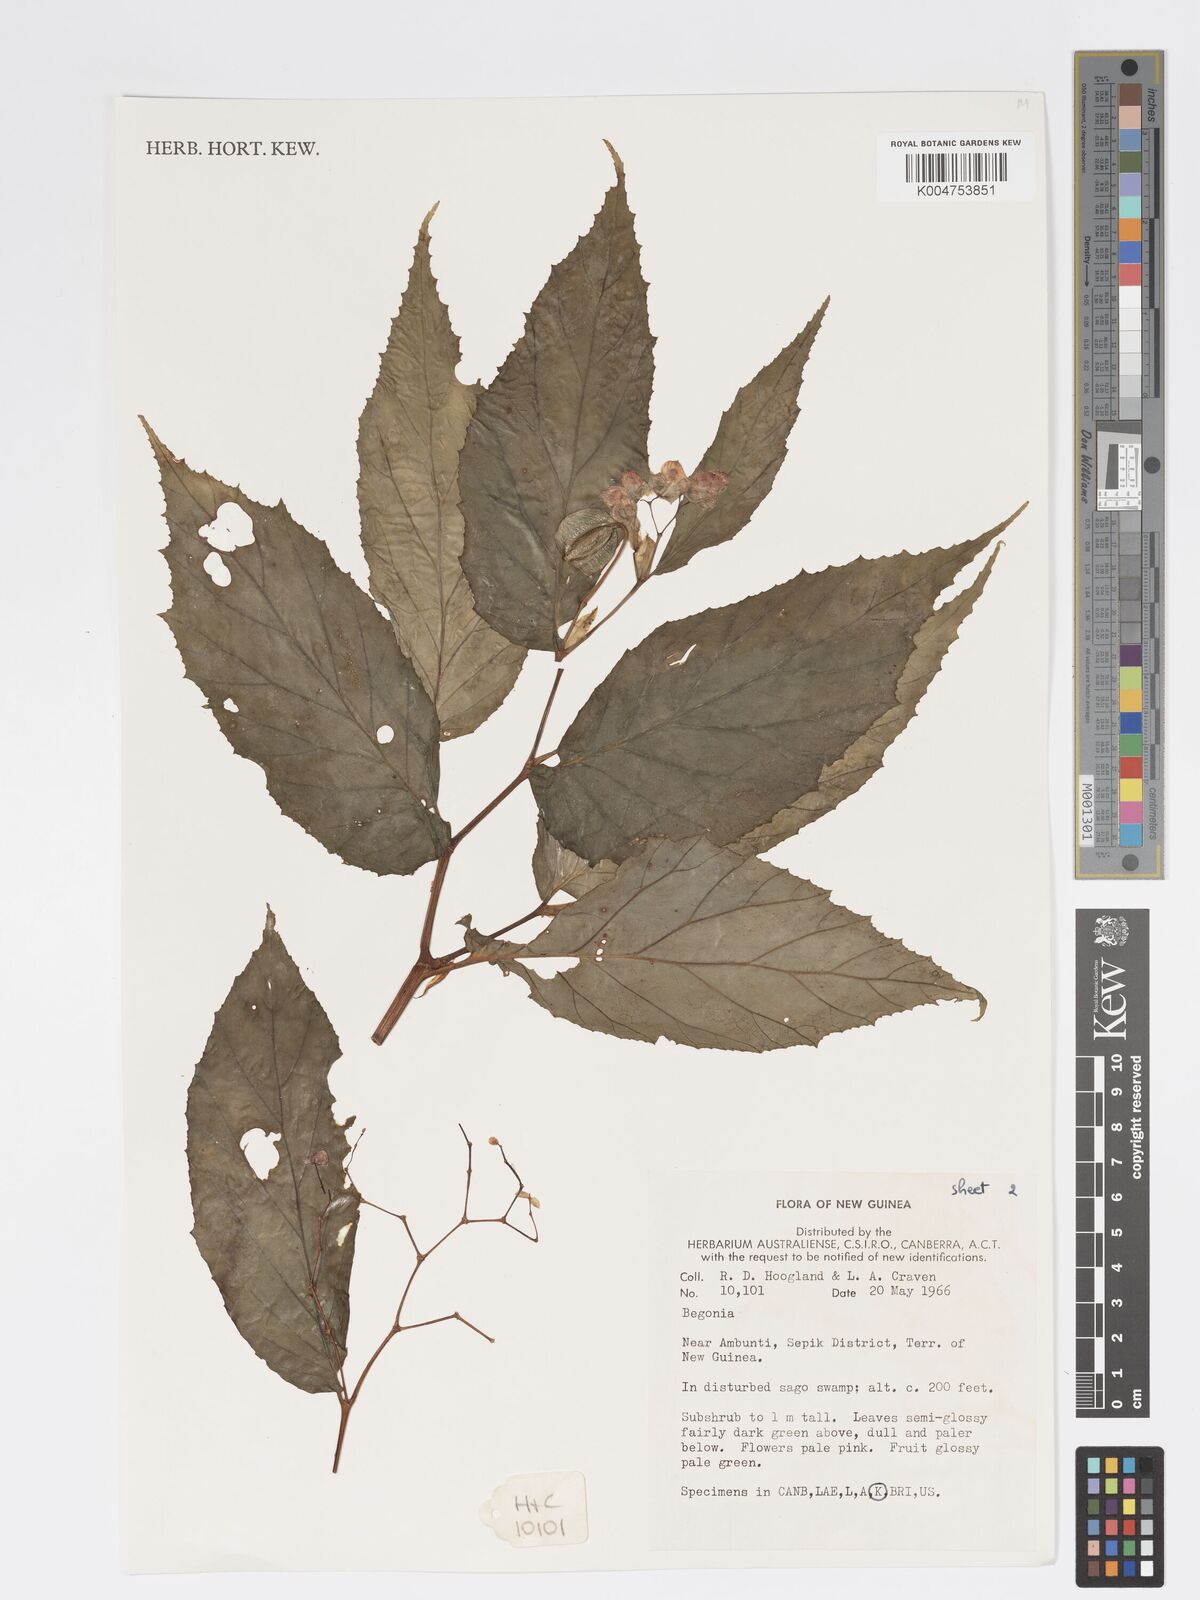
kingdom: Plantae
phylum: Tracheophyta
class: Magnoliopsida
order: Cucurbitales
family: Begoniaceae
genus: Begonia
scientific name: Begonia
